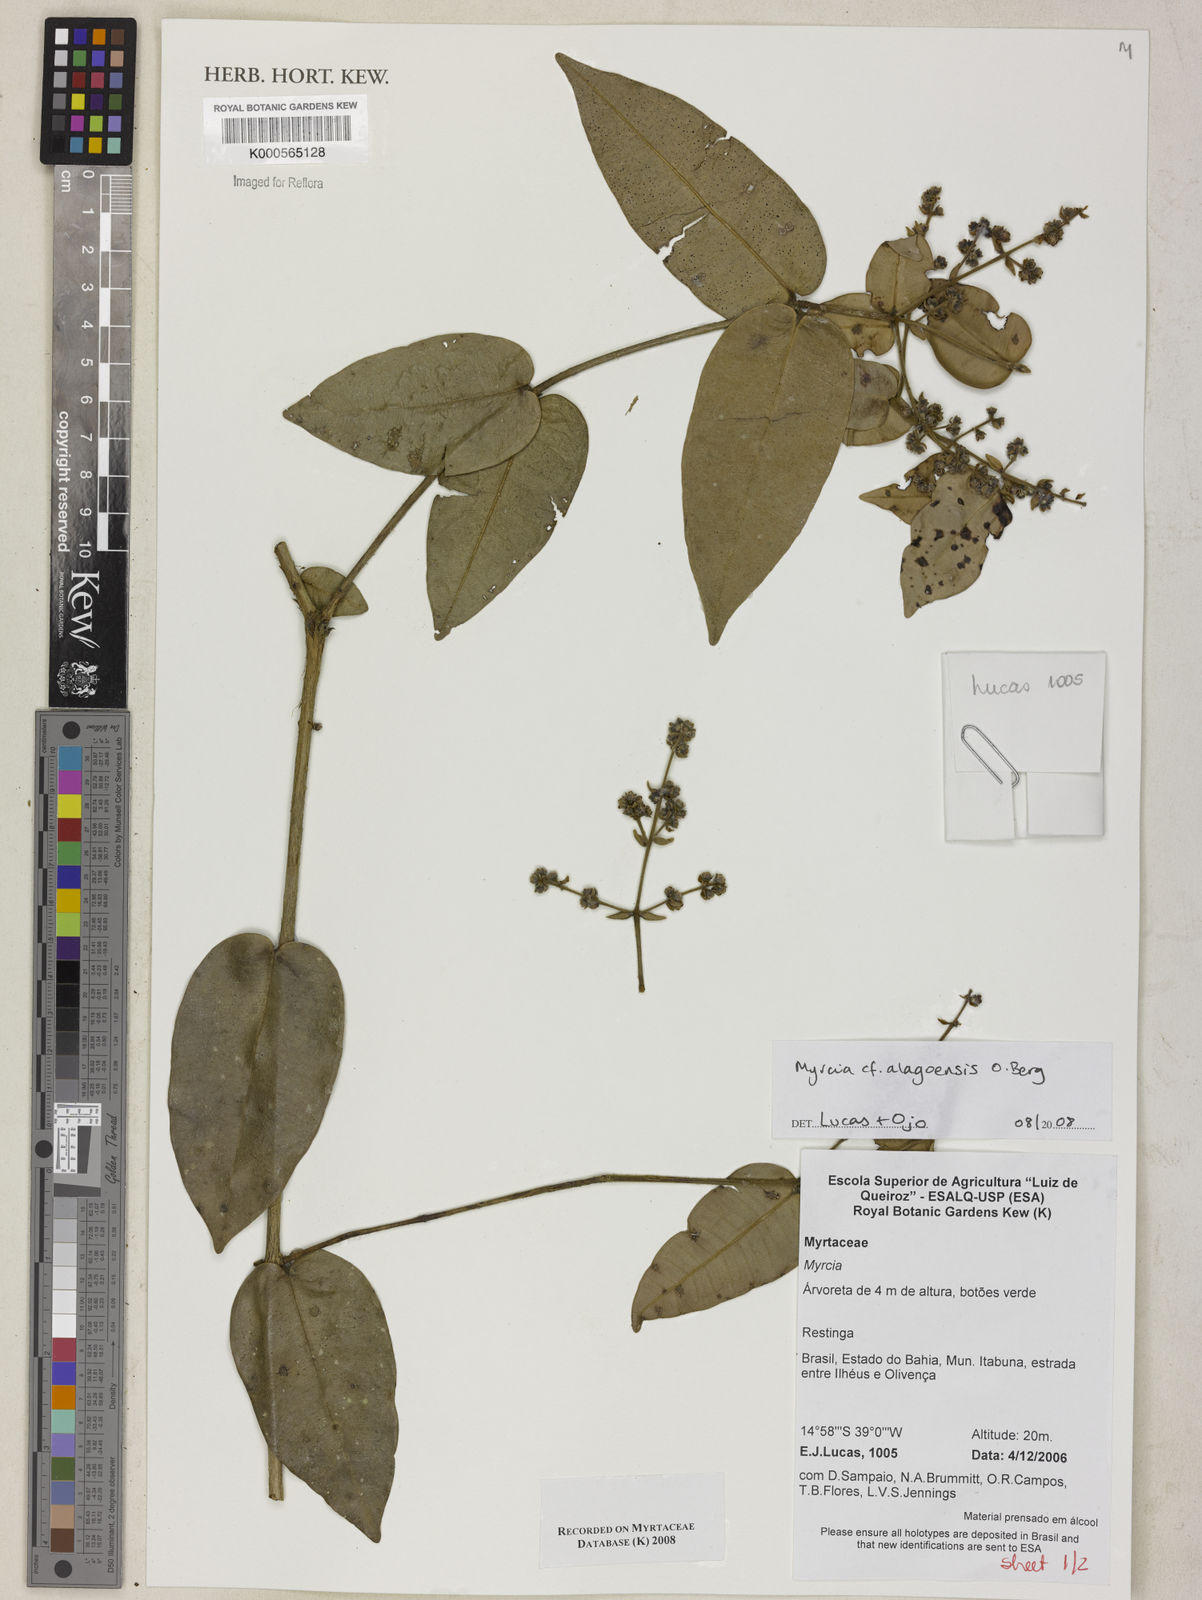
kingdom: Plantae
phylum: Tracheophyta
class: Magnoliopsida
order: Myrtales
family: Myrtaceae
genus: Myrcia
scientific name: Myrcia splendens
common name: Surinam cherry
